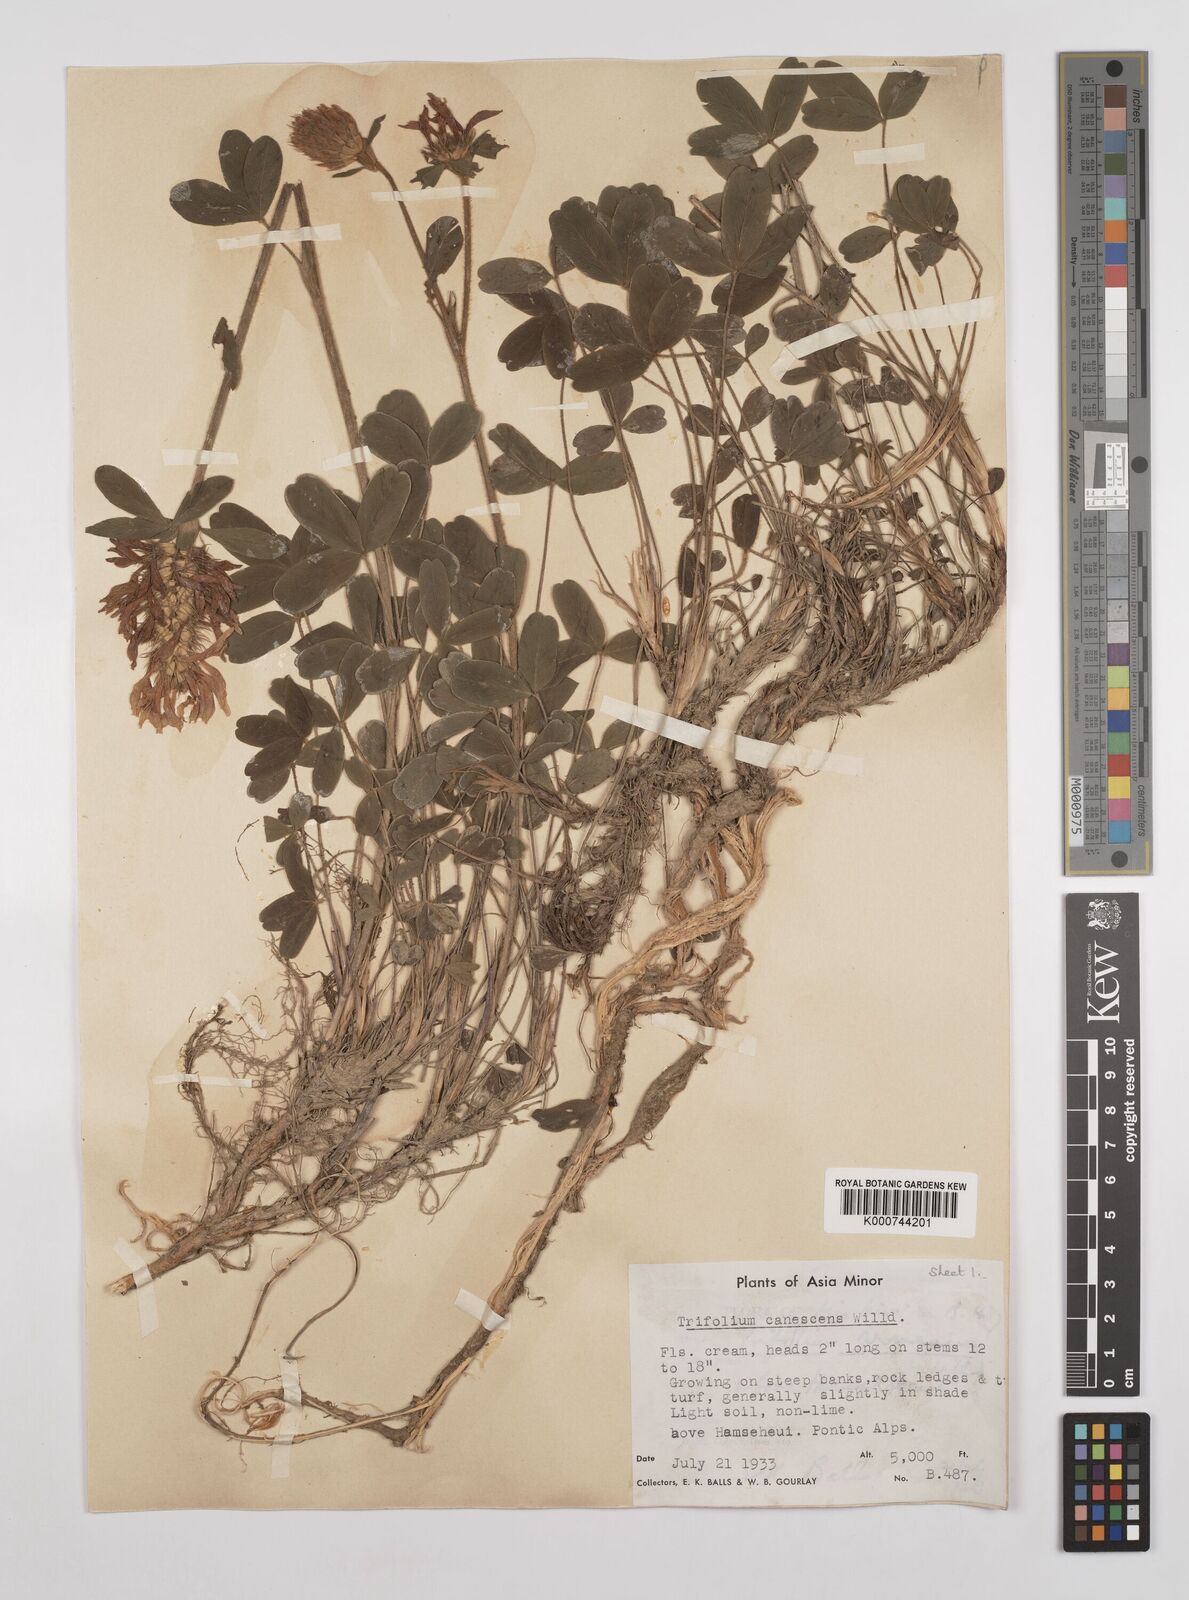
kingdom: Plantae
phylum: Tracheophyta
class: Magnoliopsida
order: Fabales
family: Fabaceae
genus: Trifolium
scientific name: Trifolium canescens
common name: Graying clover
